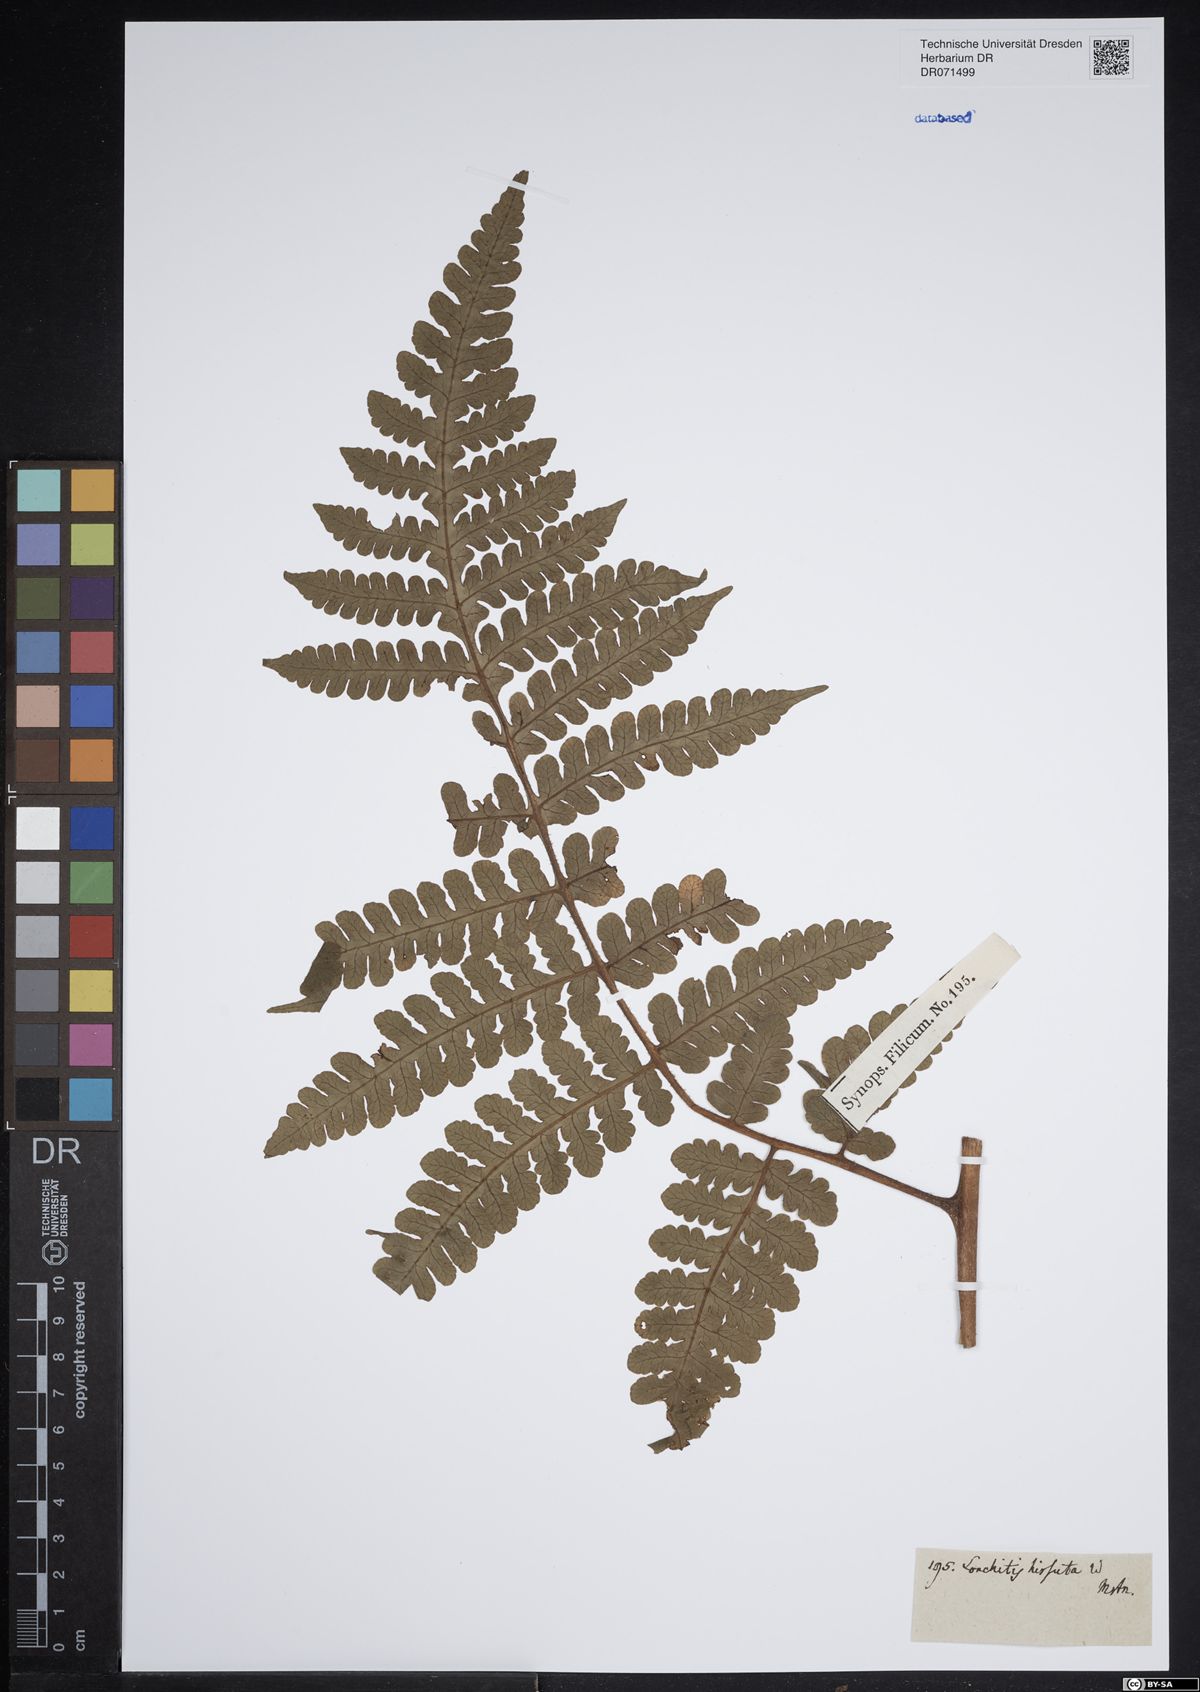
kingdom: Plantae
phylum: Tracheophyta
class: Polypodiopsida
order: Polypodiales
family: Lonchitidaceae
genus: Lonchitis
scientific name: Lonchitis hirsuta
